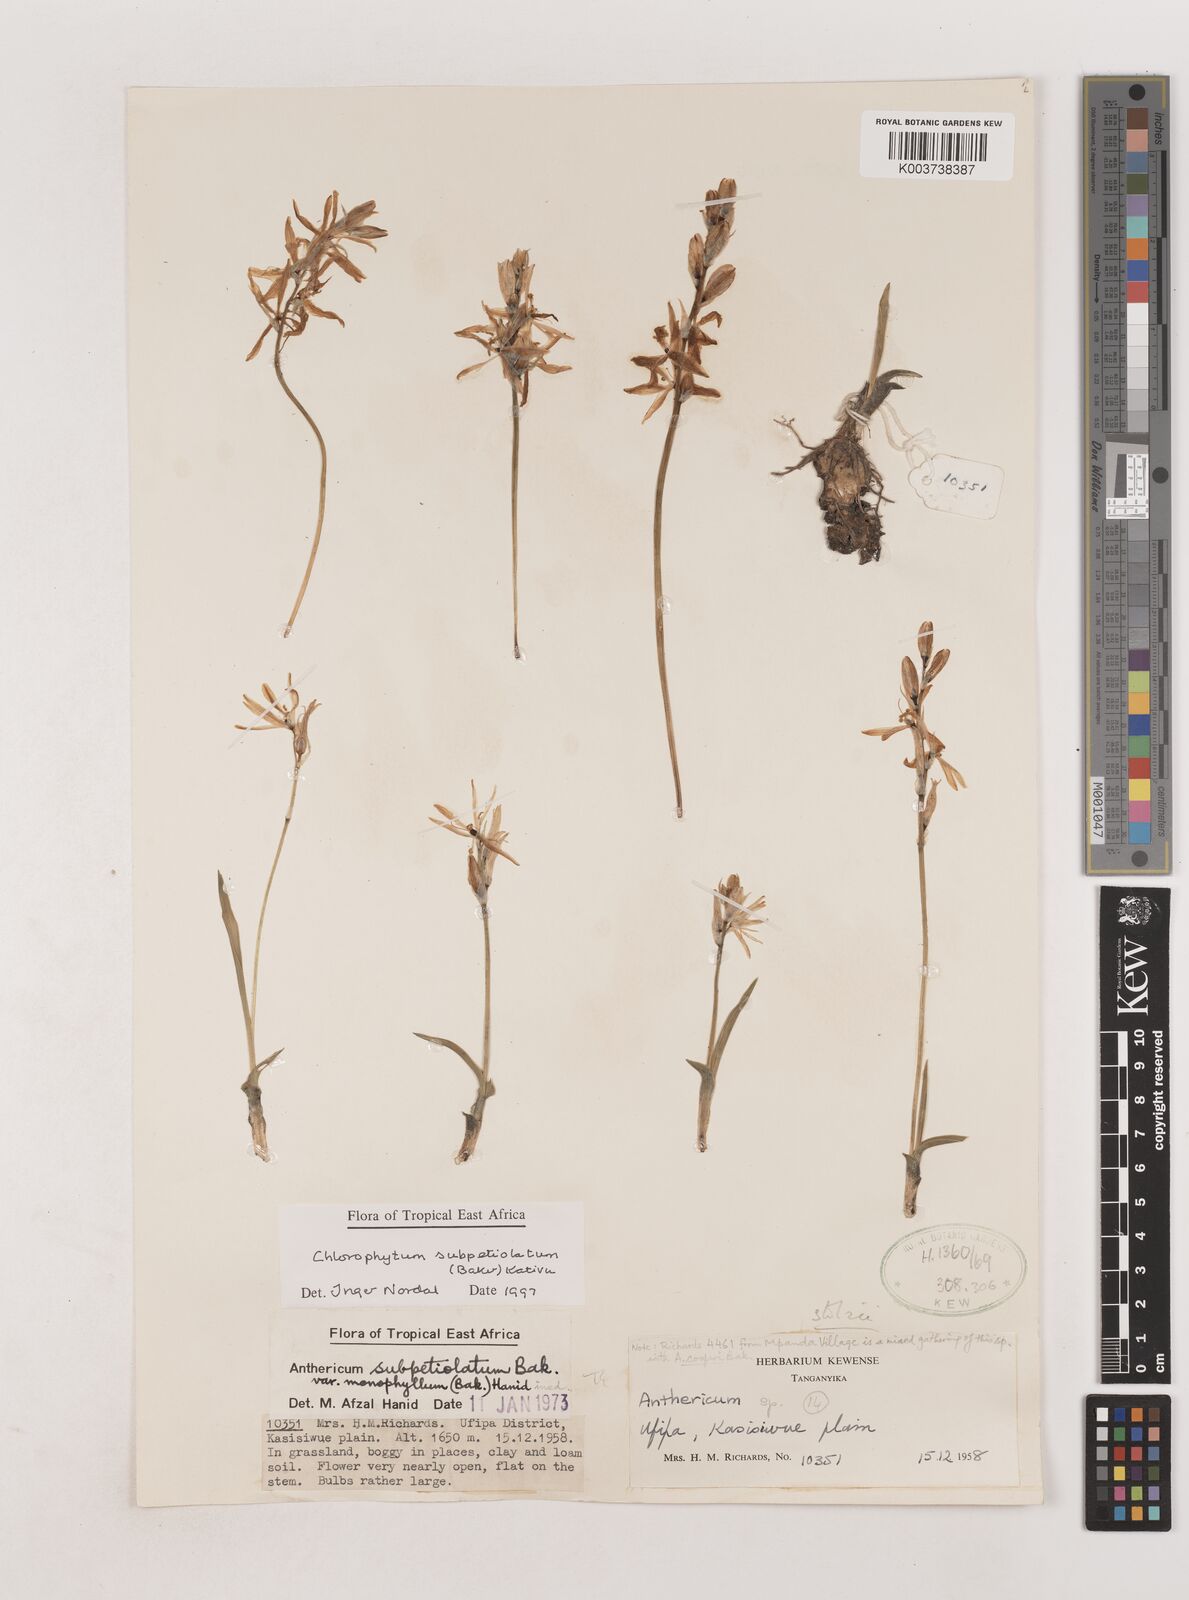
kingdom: Plantae
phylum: Tracheophyta
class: Liliopsida
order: Asparagales
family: Asparagaceae
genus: Chlorophytum
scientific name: Chlorophytum subpetiolatum
